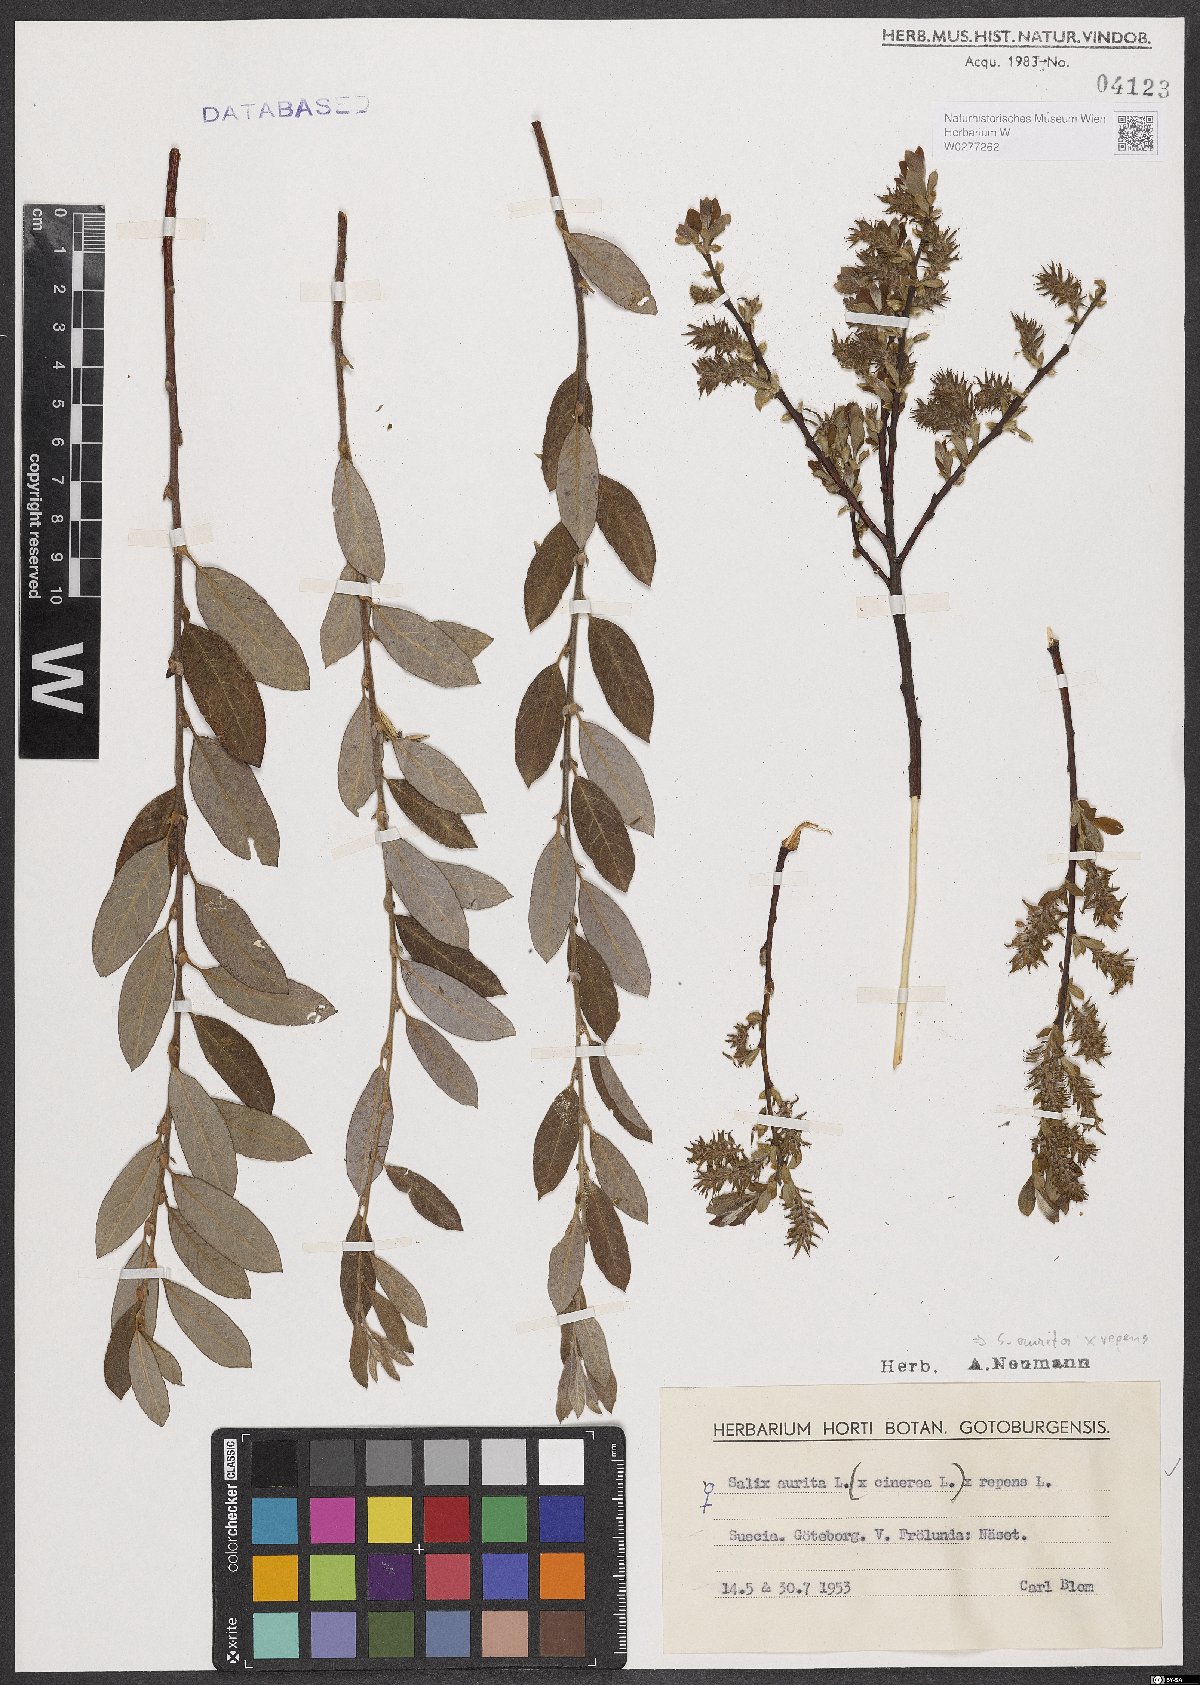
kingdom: Plantae
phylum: Tracheophyta
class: Magnoliopsida
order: Malpighiales
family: Salicaceae
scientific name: Salicaceae
